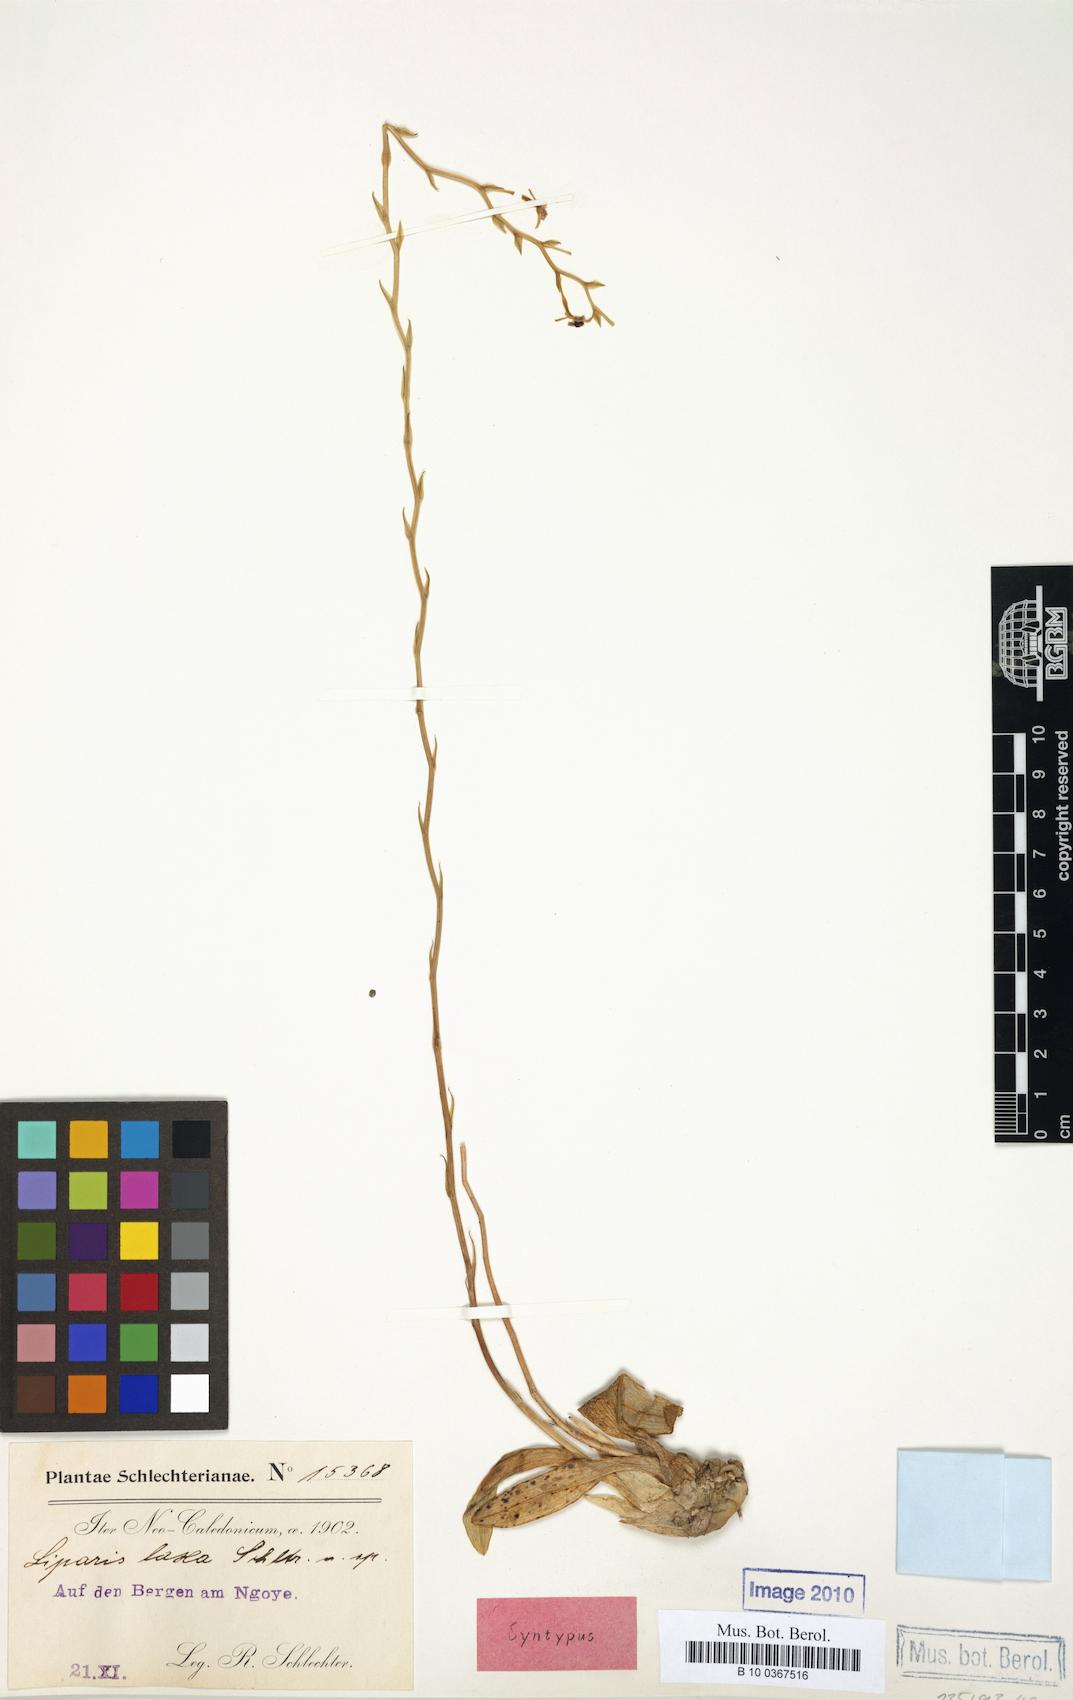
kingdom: Plantae
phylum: Tracheophyta
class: Liliopsida
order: Asparagales
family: Orchidaceae
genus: Liparis
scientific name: Liparis laxa
